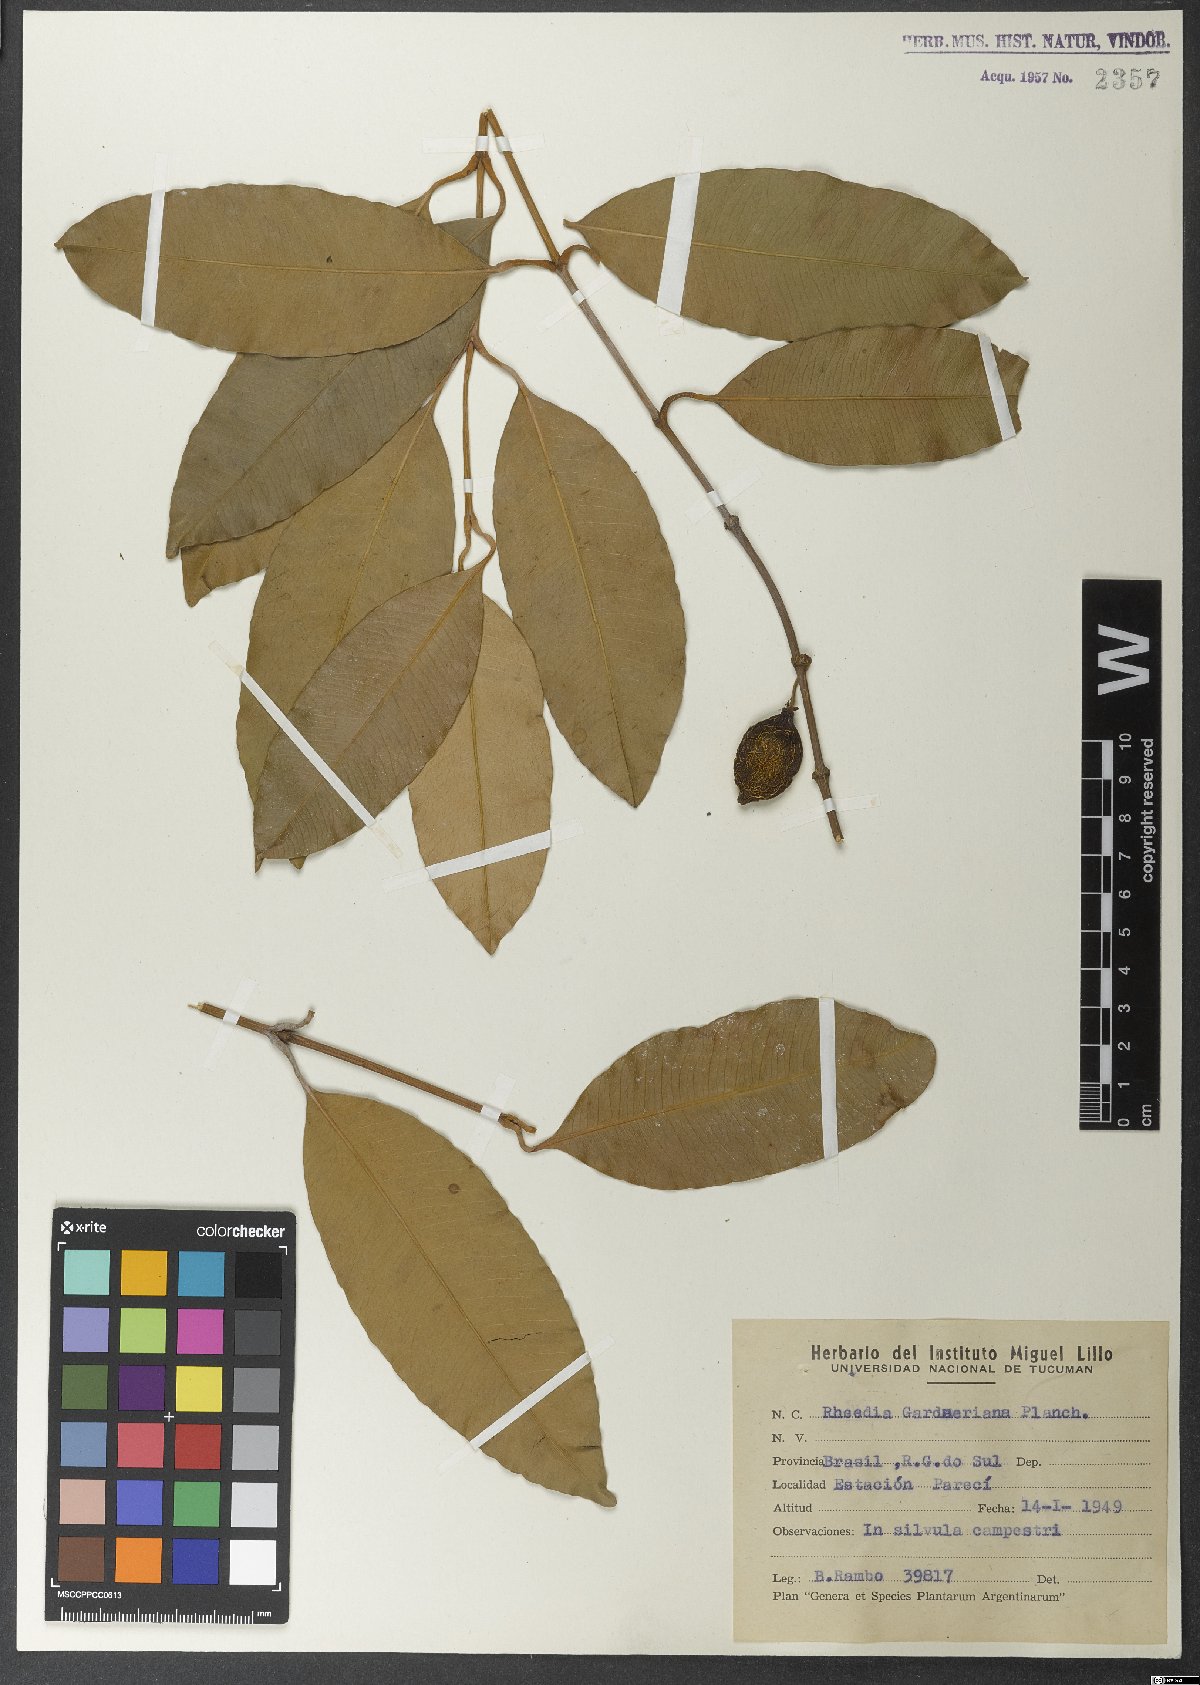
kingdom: Plantae
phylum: Tracheophyta
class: Magnoliopsida
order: Malpighiales
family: Clusiaceae
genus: Garcinia
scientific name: Garcinia gardneriana
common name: Achacha
